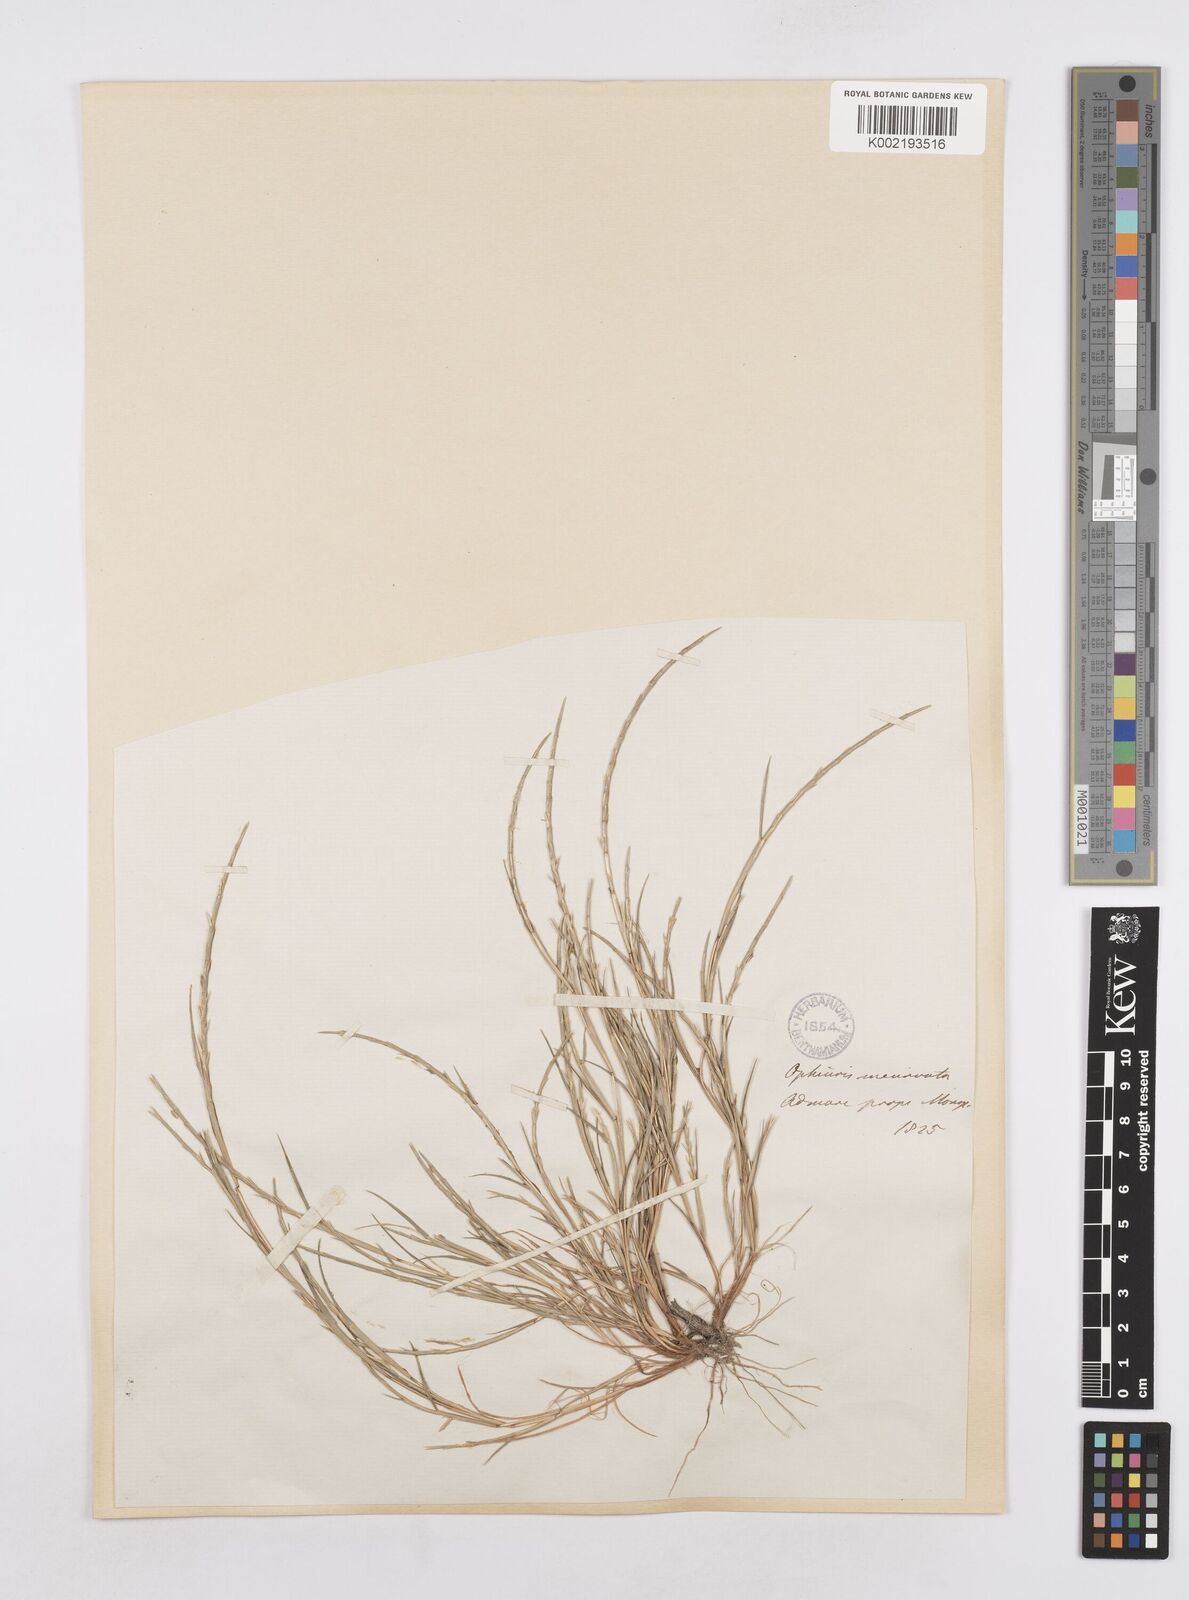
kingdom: Plantae
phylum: Tracheophyta
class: Liliopsida
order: Poales
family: Poaceae
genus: Parapholis
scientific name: Parapholis incurva
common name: Curved sicklegrass
